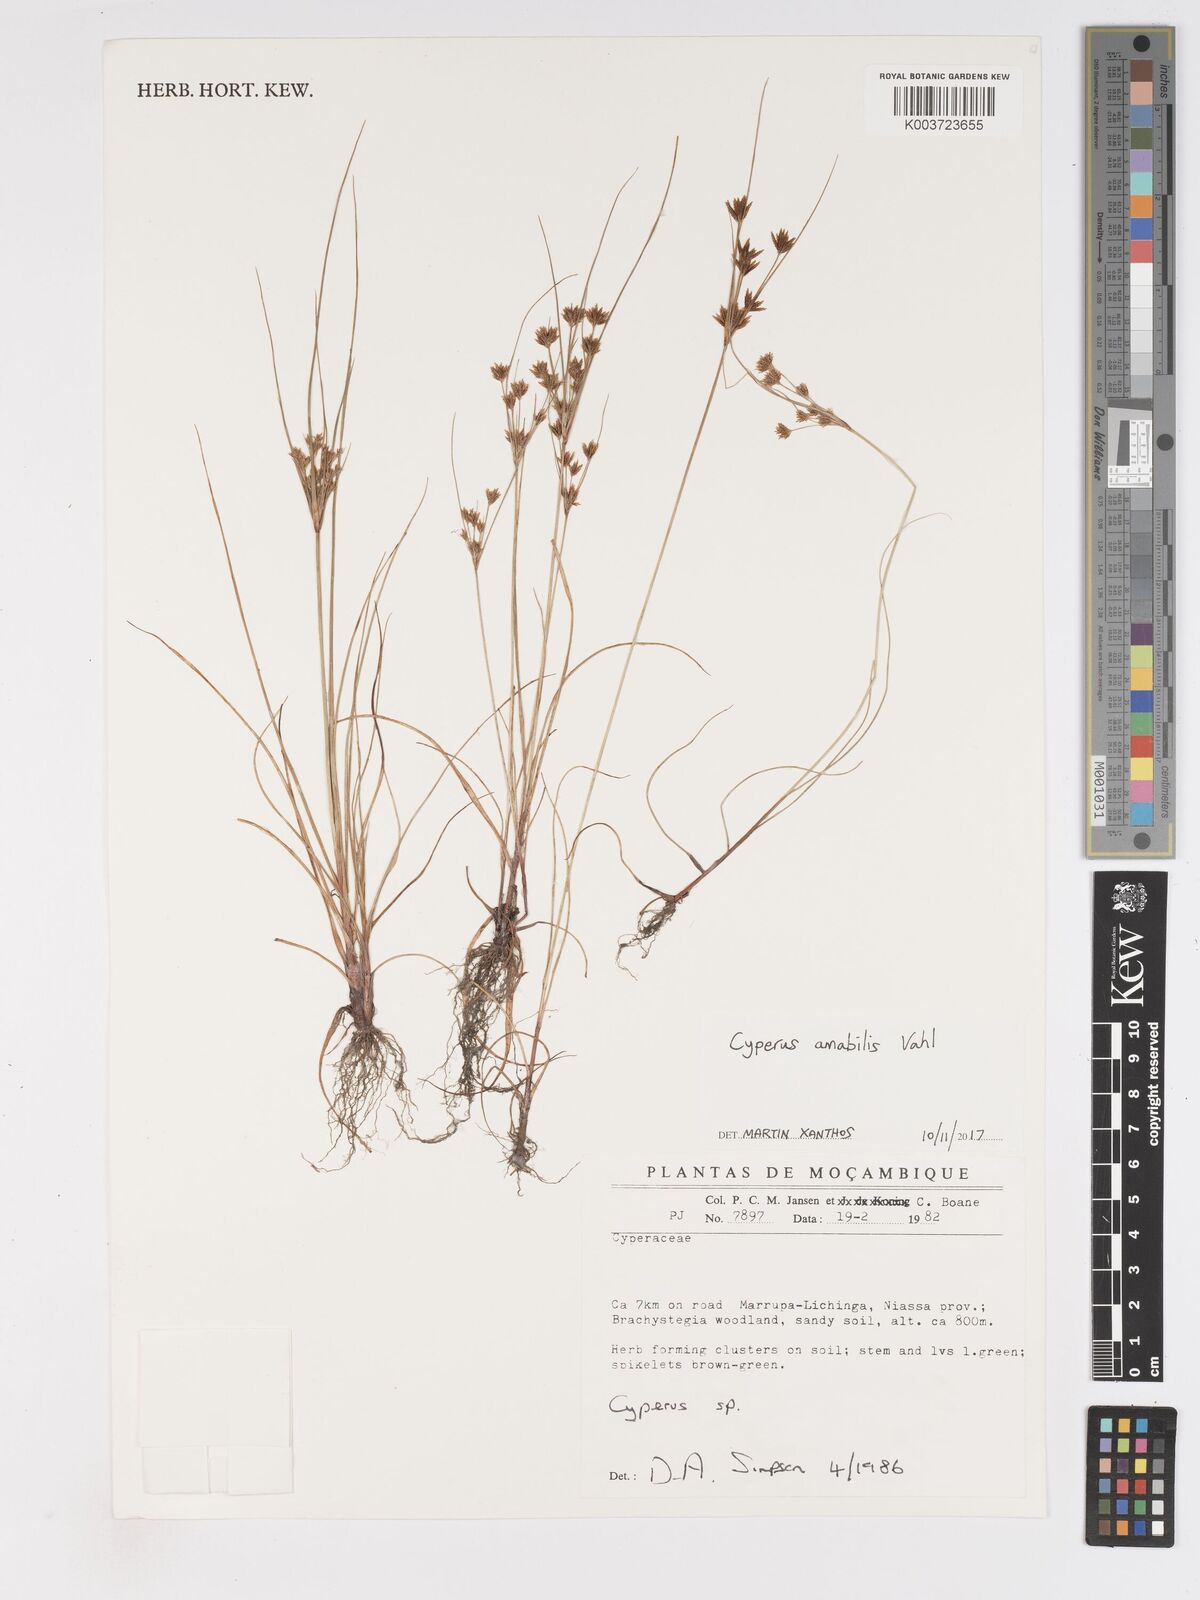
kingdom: Plantae
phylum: Tracheophyta
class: Liliopsida
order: Poales
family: Cyperaceae
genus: Cyperus
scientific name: Cyperus amabilis
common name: Foothill flat sedge
